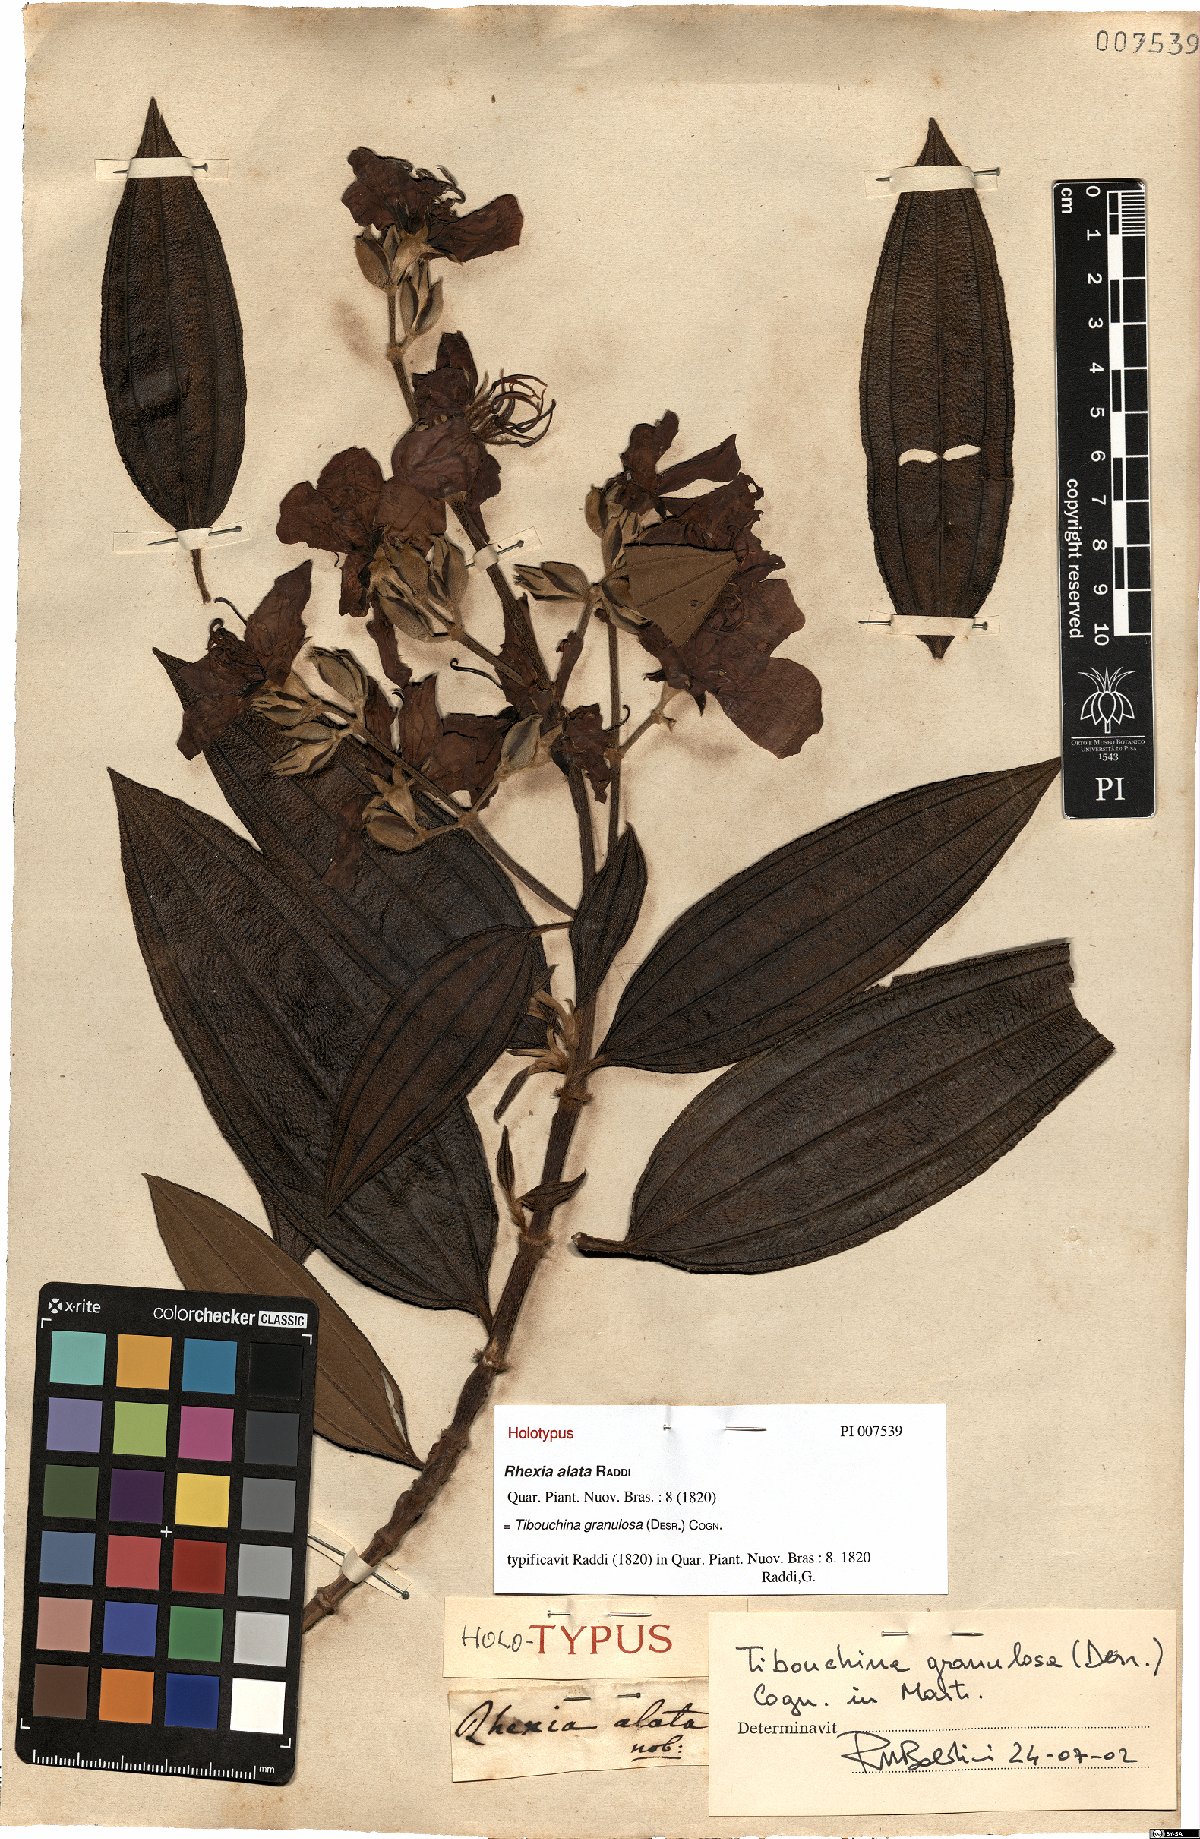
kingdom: Plantae
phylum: Tracheophyta
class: Magnoliopsida
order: Myrtales
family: Melastomataceae
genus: Pleroma
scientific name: Pleroma granulosum
